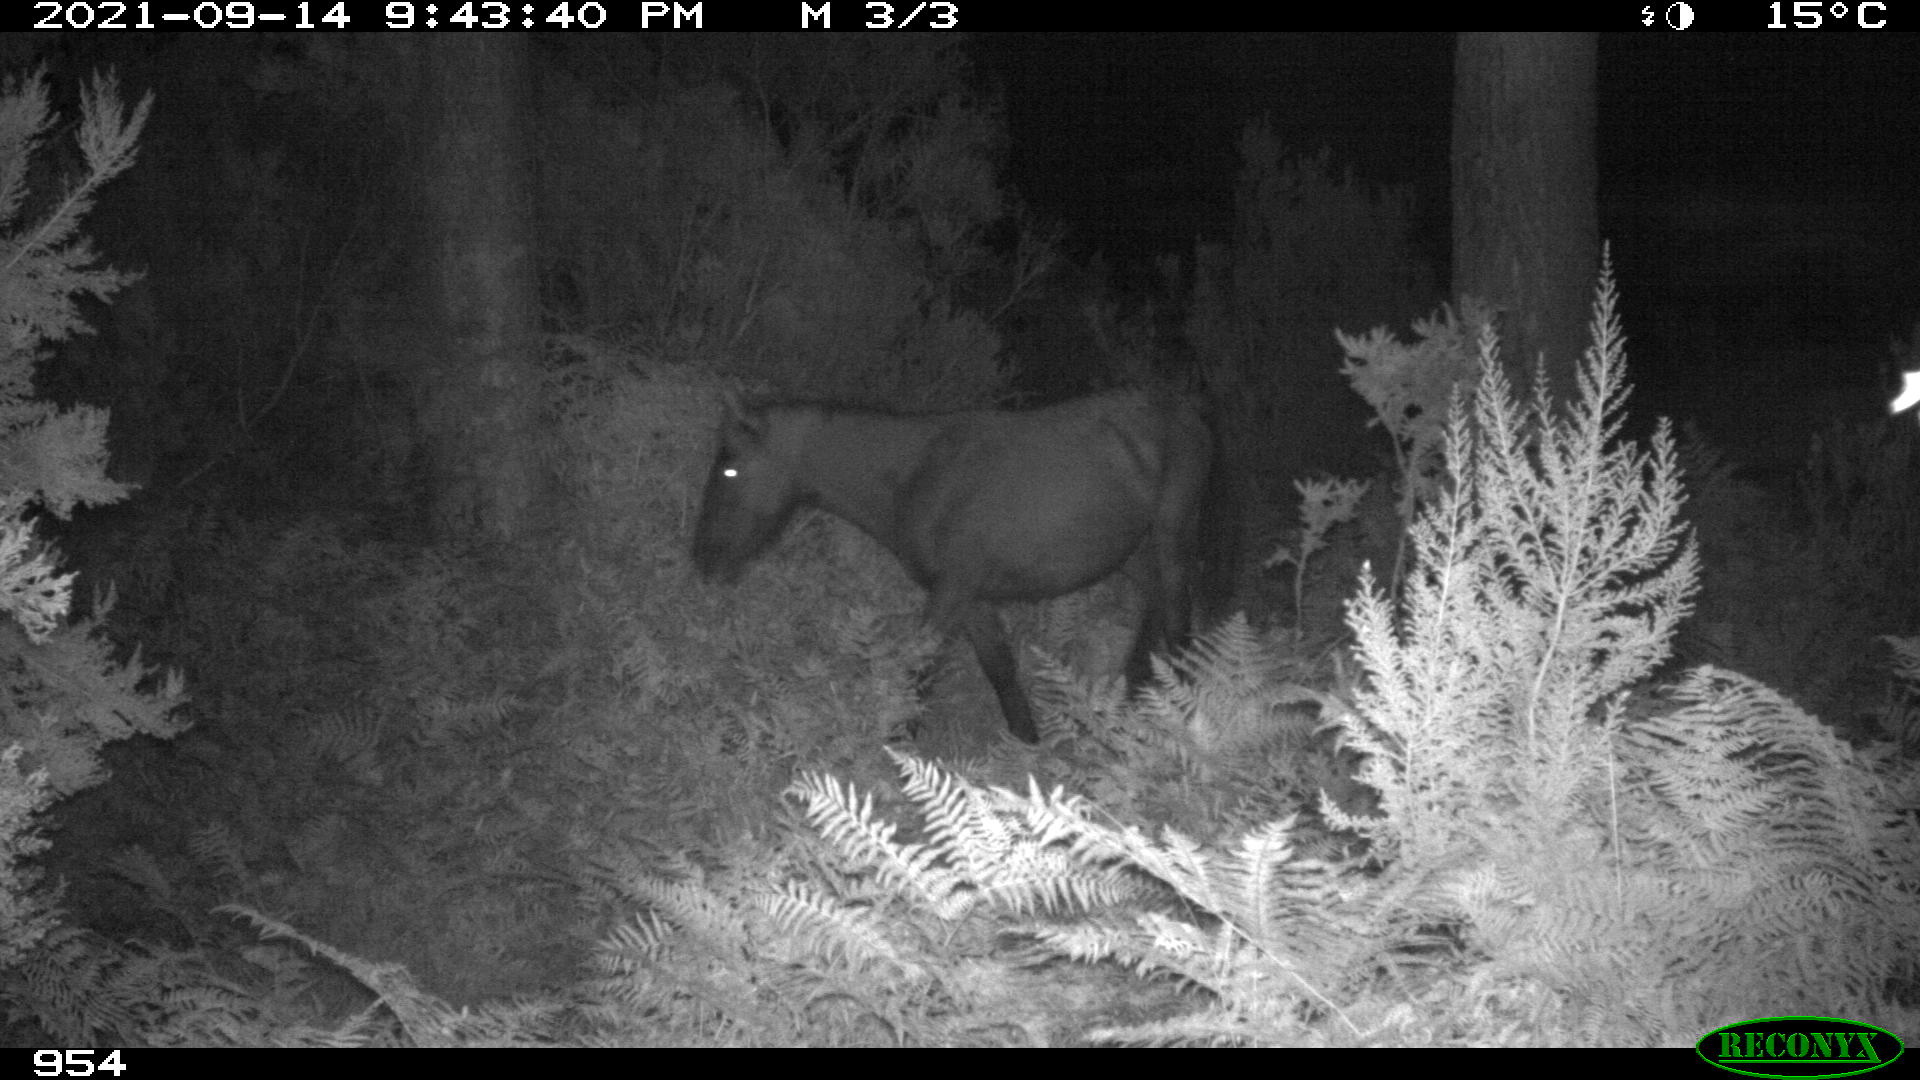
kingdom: Animalia
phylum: Chordata
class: Mammalia
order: Perissodactyla
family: Equidae
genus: Equus
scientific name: Equus caballus
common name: Horse
